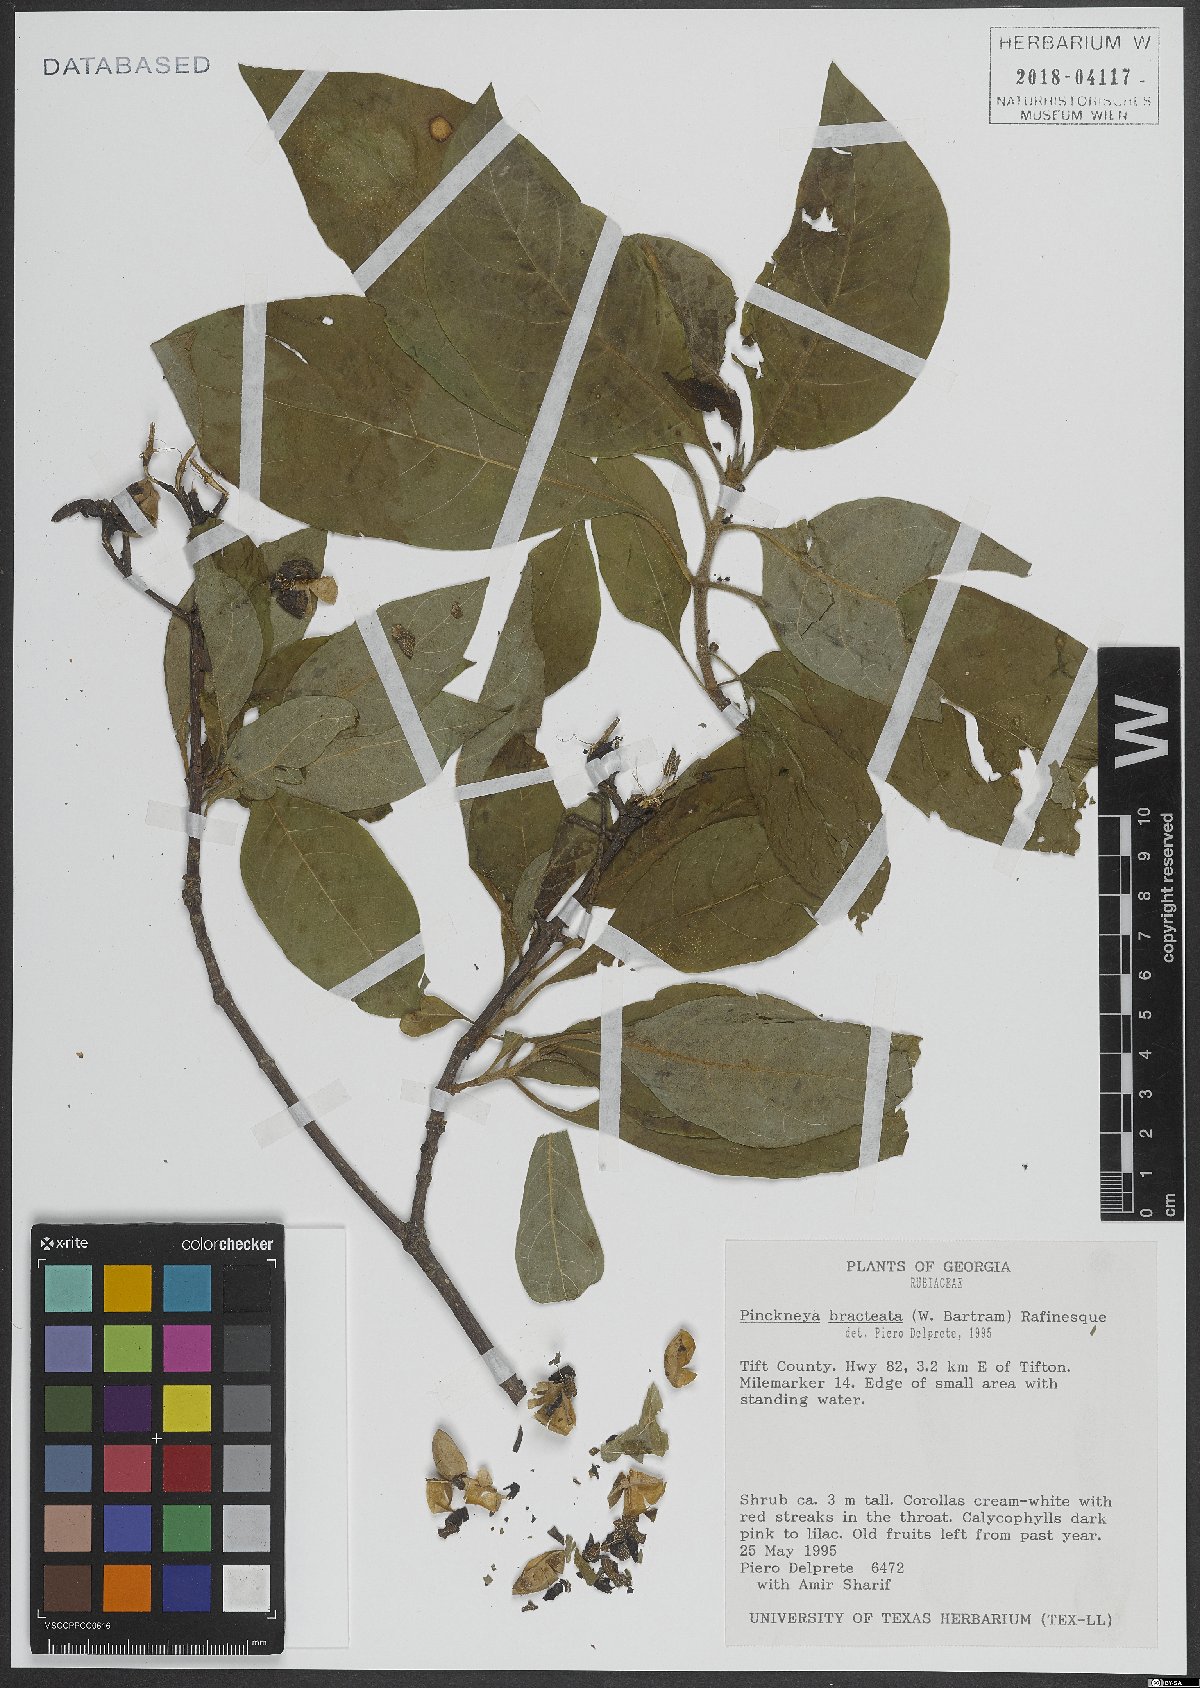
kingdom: Plantae
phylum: Tracheophyta
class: Magnoliopsida
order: Gentianales
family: Rubiaceae
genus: Pinckneya
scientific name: Pinckneya pubens
